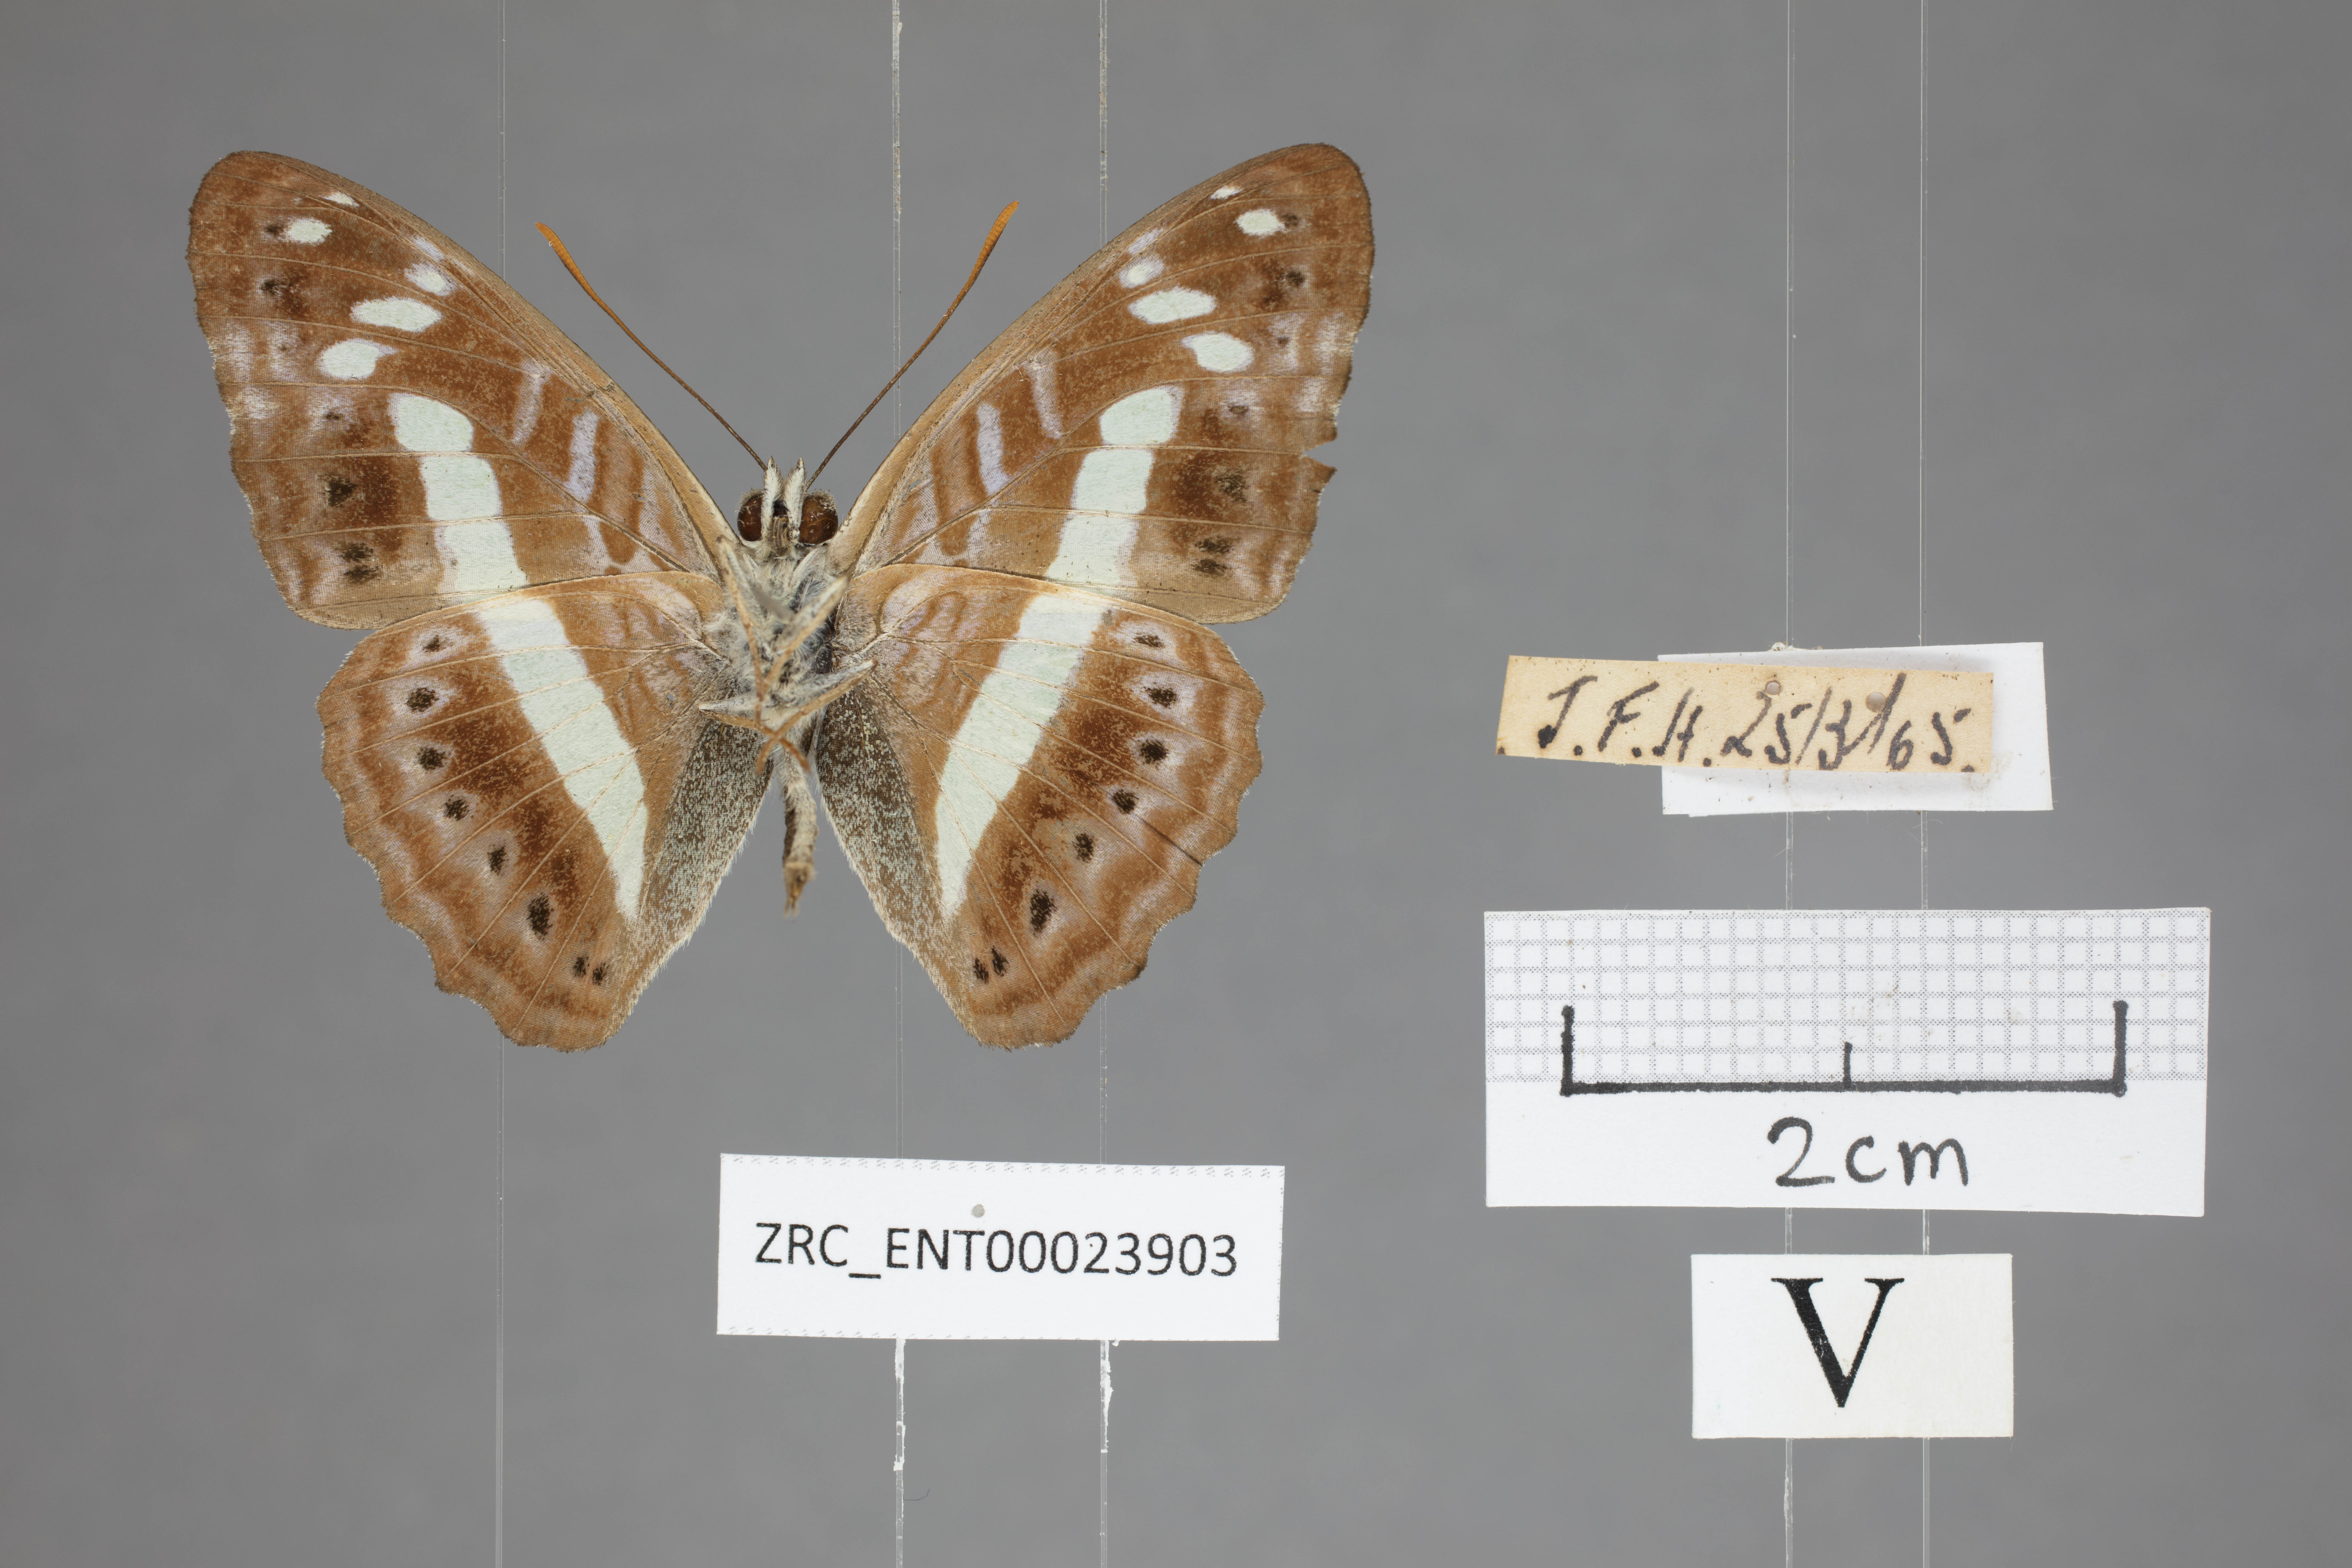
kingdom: Animalia
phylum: Arthropoda
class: Insecta
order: Lepidoptera
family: Nymphalidae
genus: Limenitis
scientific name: Limenitis
